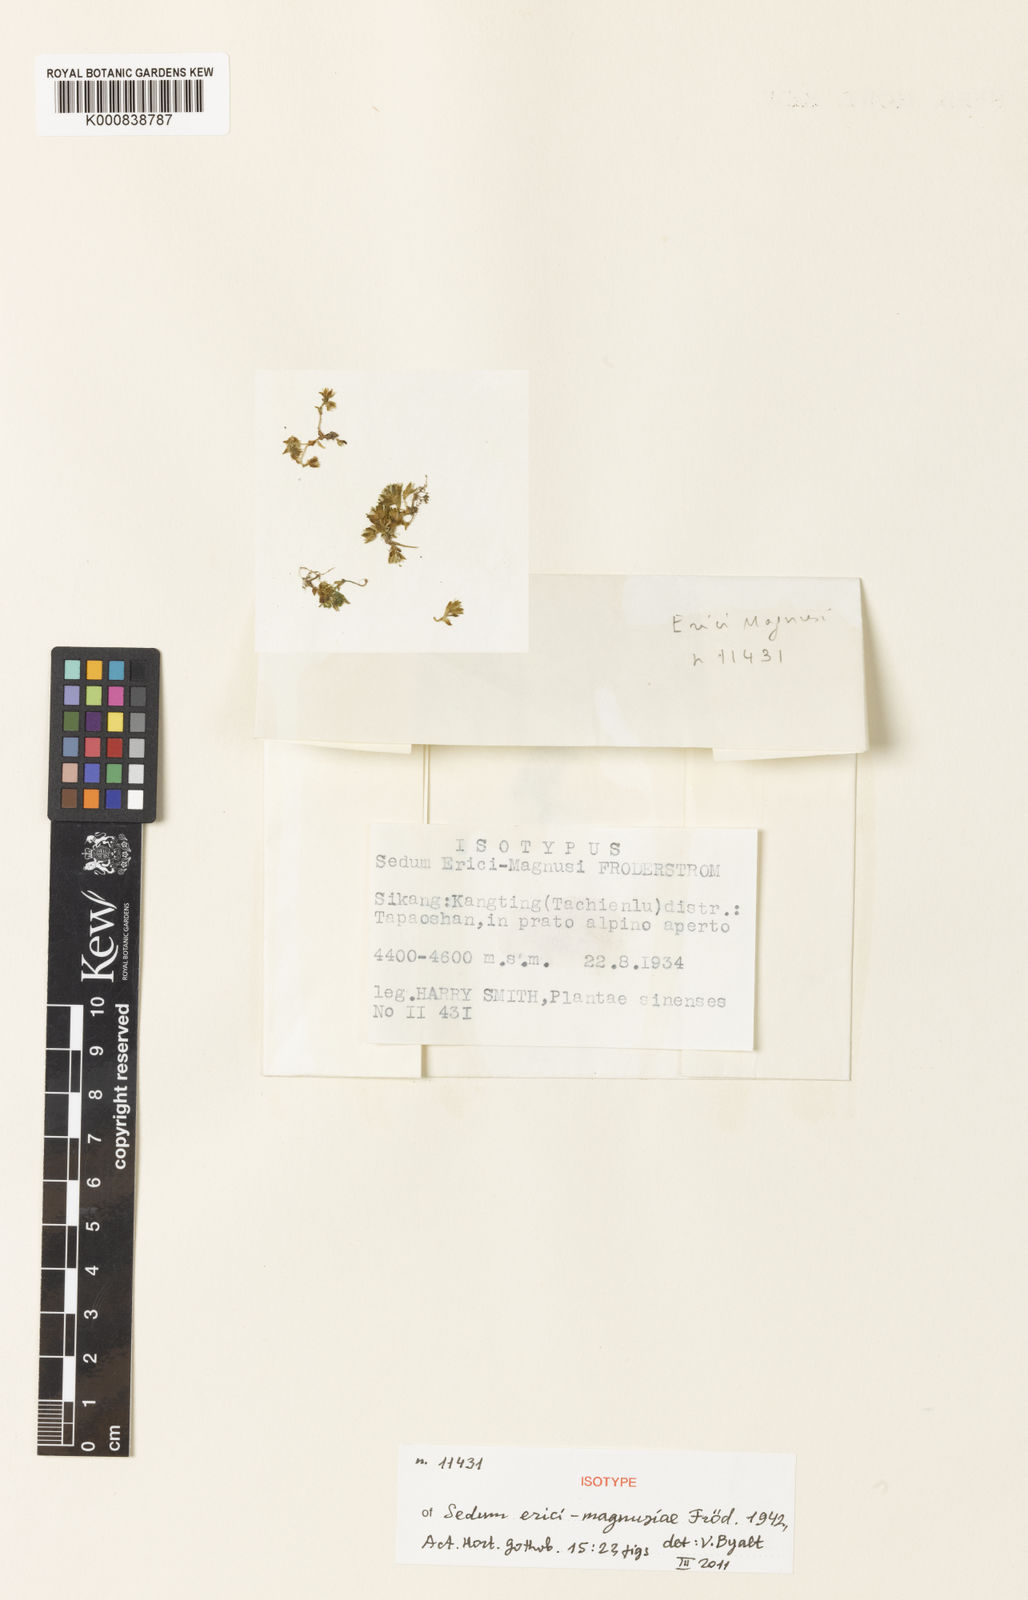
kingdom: Plantae
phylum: Tracheophyta
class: Magnoliopsida
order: Saxifragales
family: Crassulaceae
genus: Sedum
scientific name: Sedum
